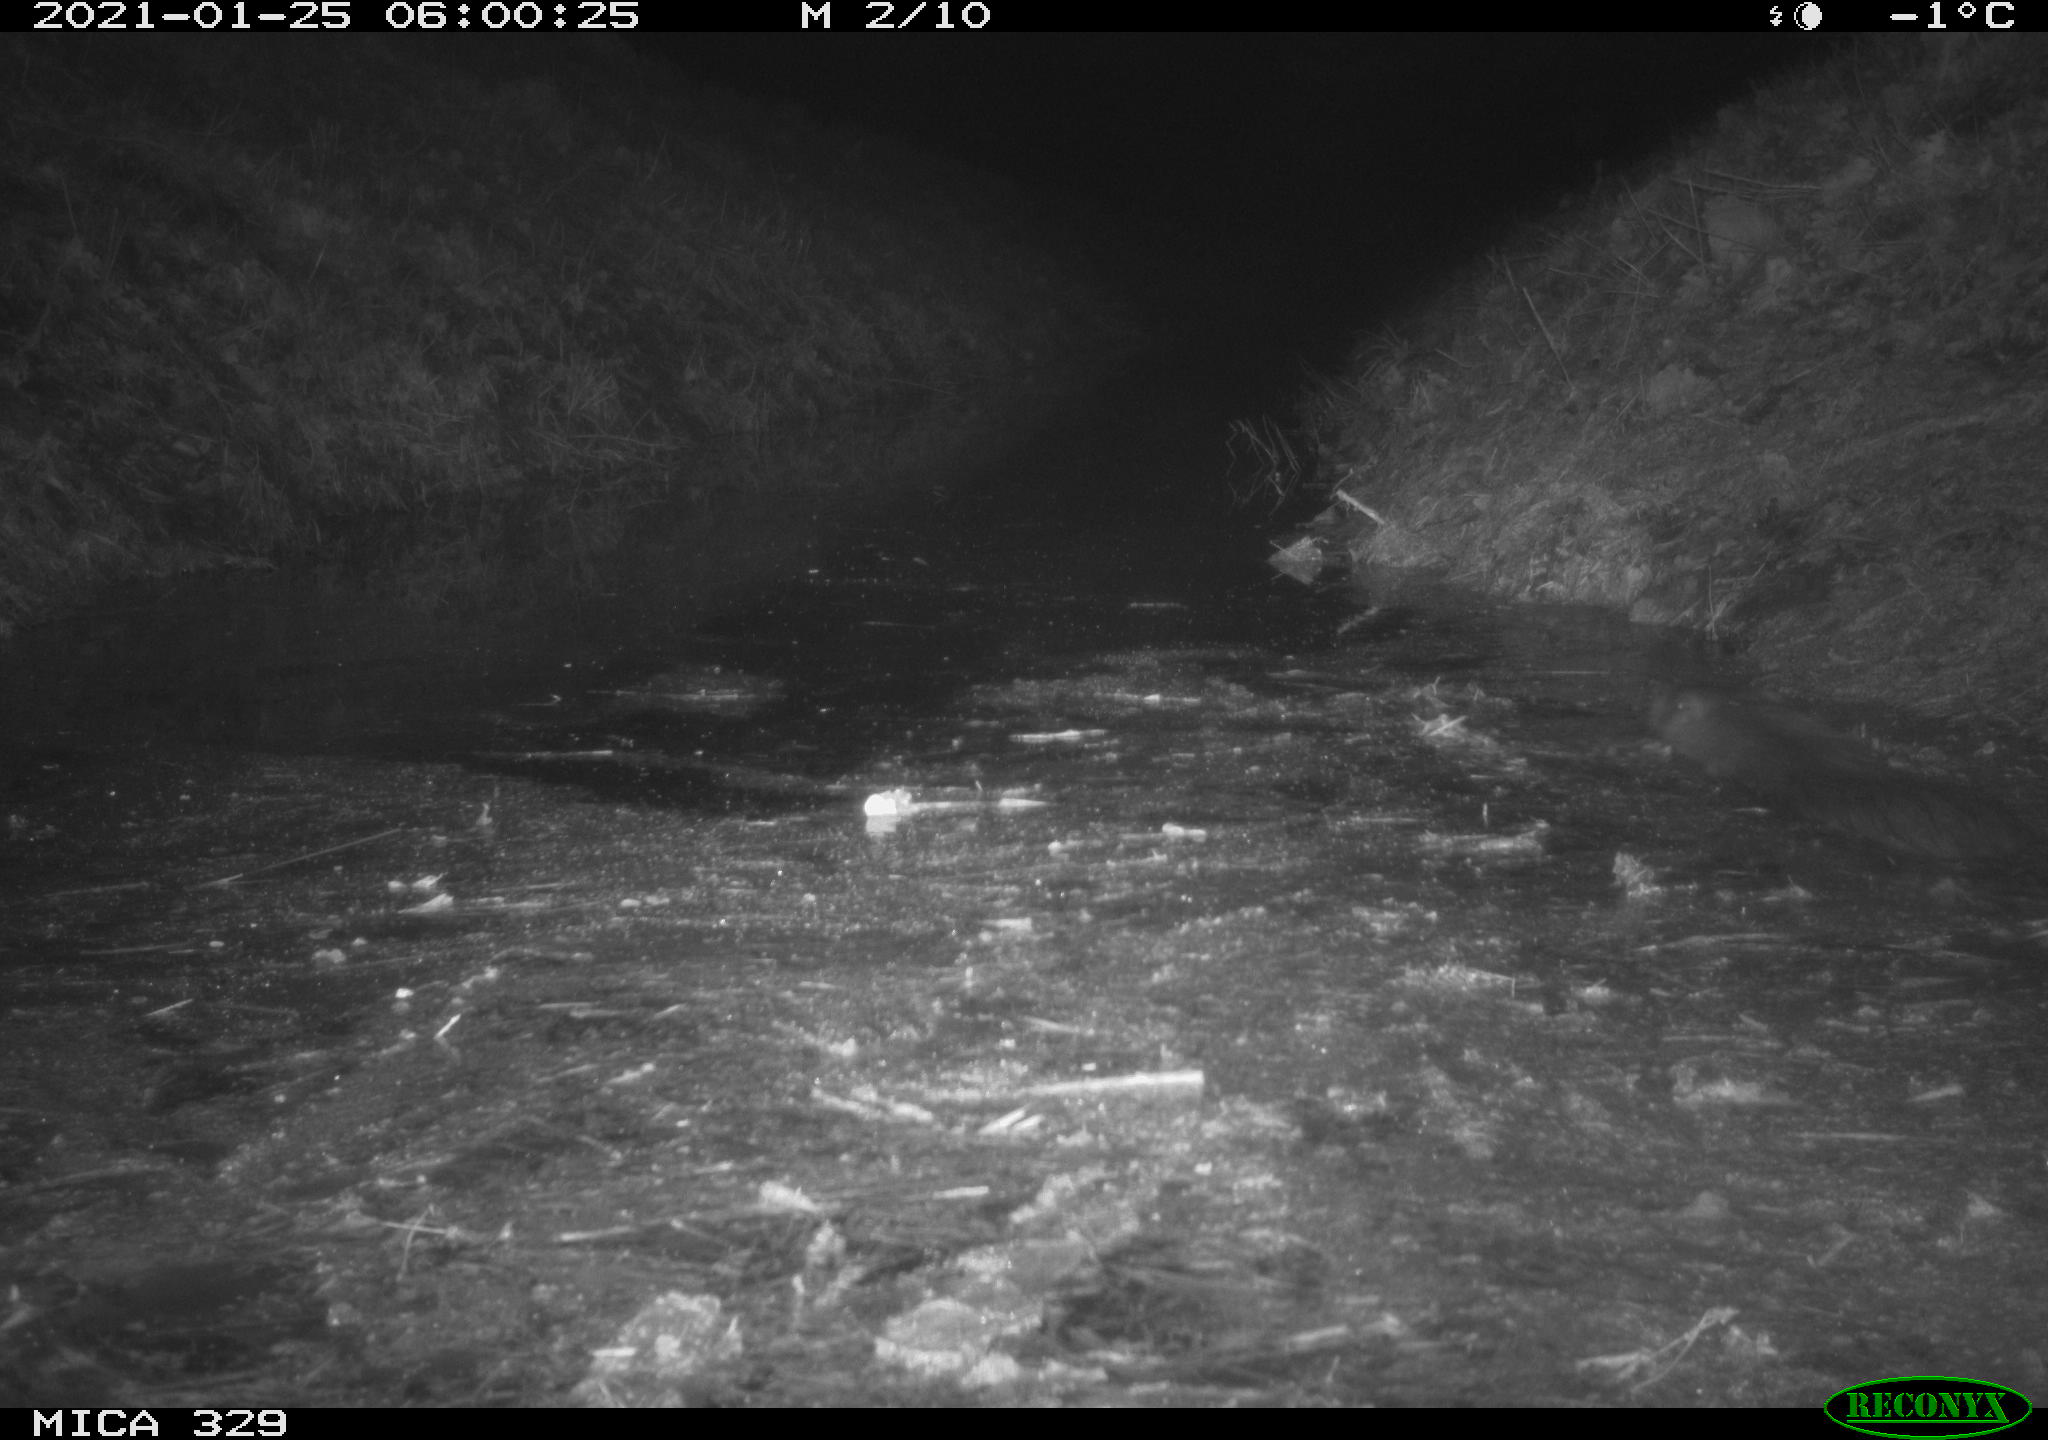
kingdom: Animalia
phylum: Chordata
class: Mammalia
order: Rodentia
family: Myocastoridae
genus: Myocastor
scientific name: Myocastor coypus
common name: Coypu
